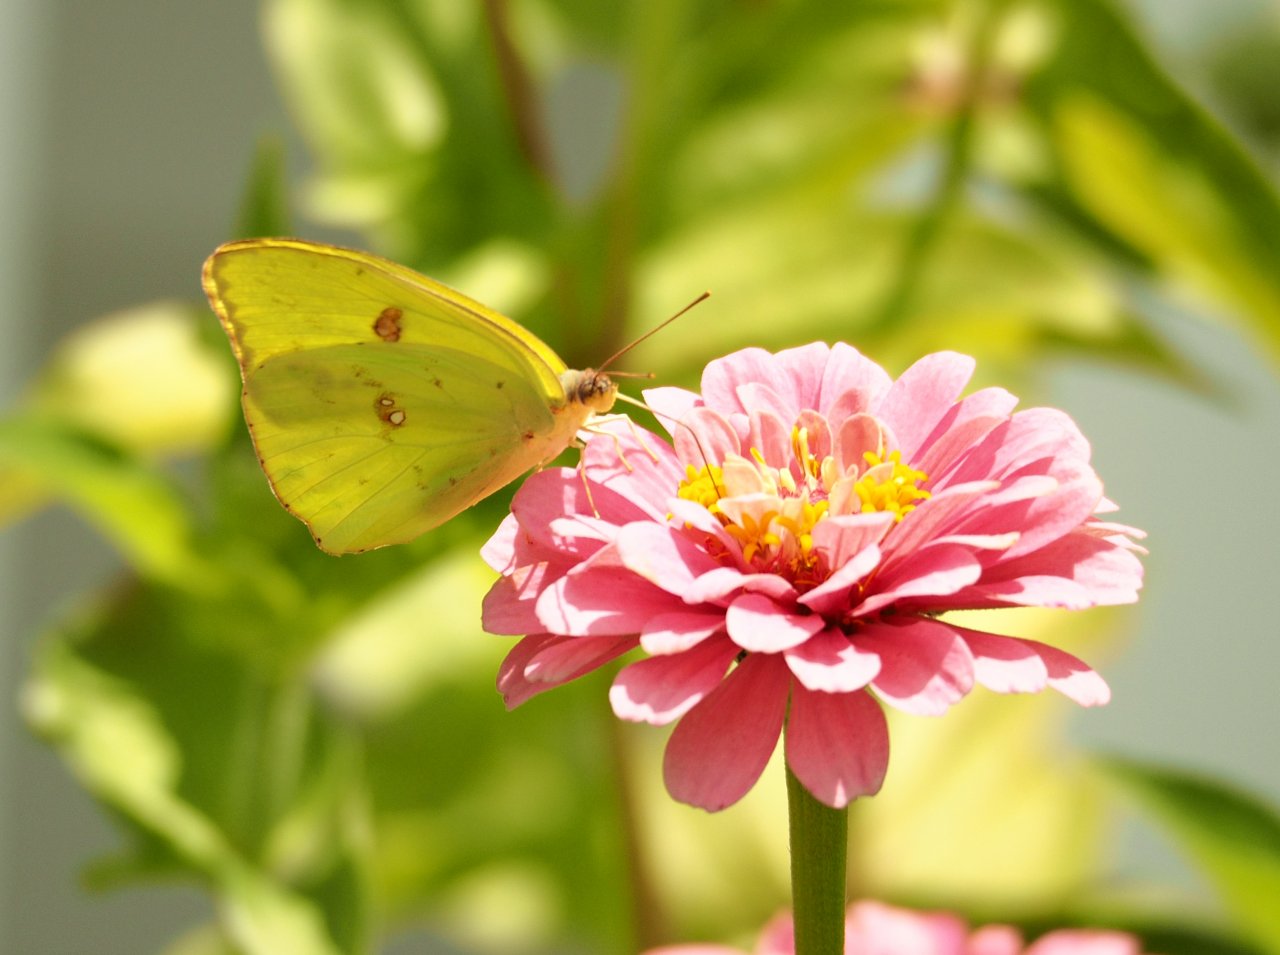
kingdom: Animalia
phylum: Arthropoda
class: Insecta
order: Lepidoptera
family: Pieridae
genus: Phoebis
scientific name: Phoebis sennae
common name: Cloudless Sulphur
